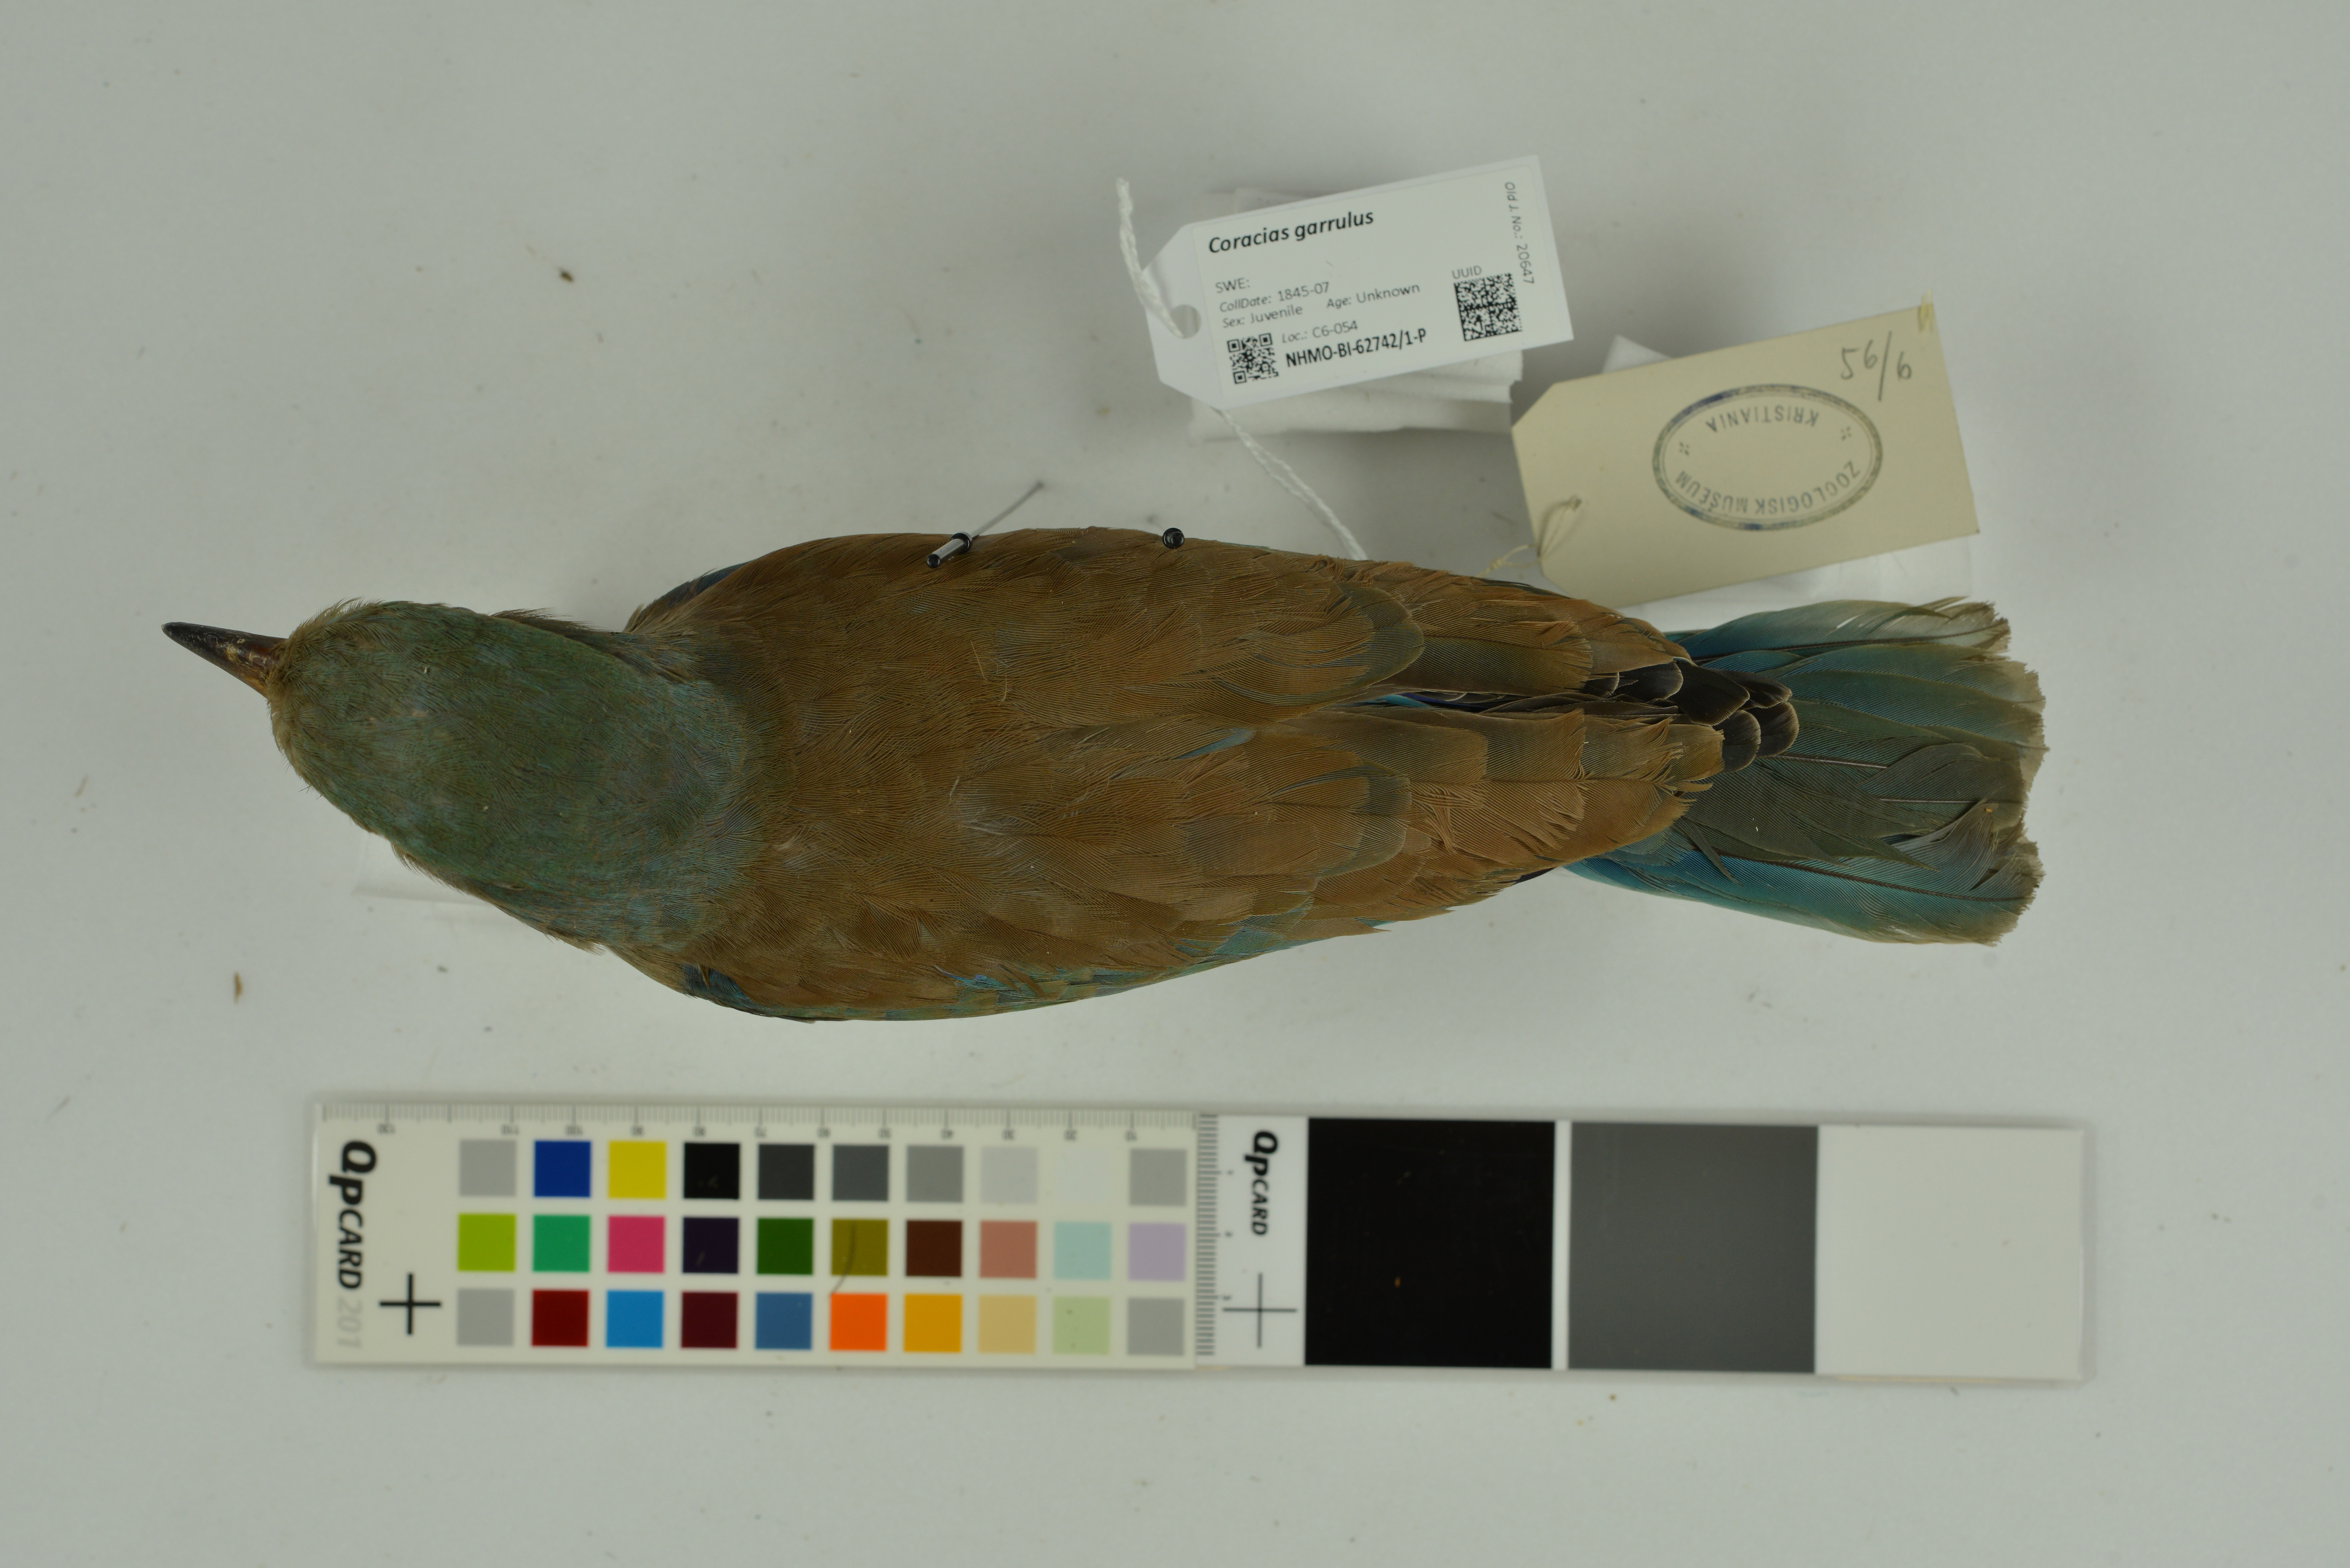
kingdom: Animalia
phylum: Chordata
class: Aves
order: Coraciiformes
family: Coraciidae
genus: Coracias
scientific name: Coracias garrulus
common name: European roller
